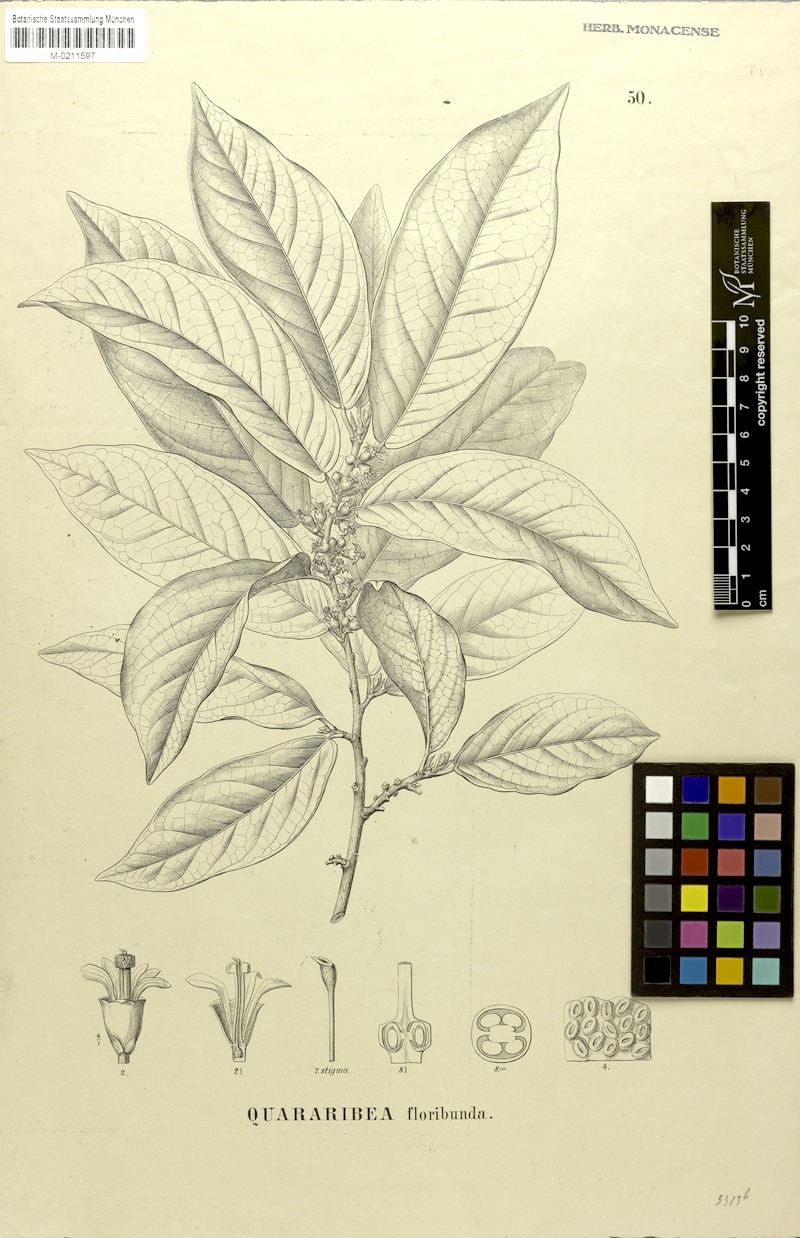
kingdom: Plantae
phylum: Tracheophyta
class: Magnoliopsida
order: Malvales
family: Malvaceae
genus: Quararibea
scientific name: Quararibea floribunda
